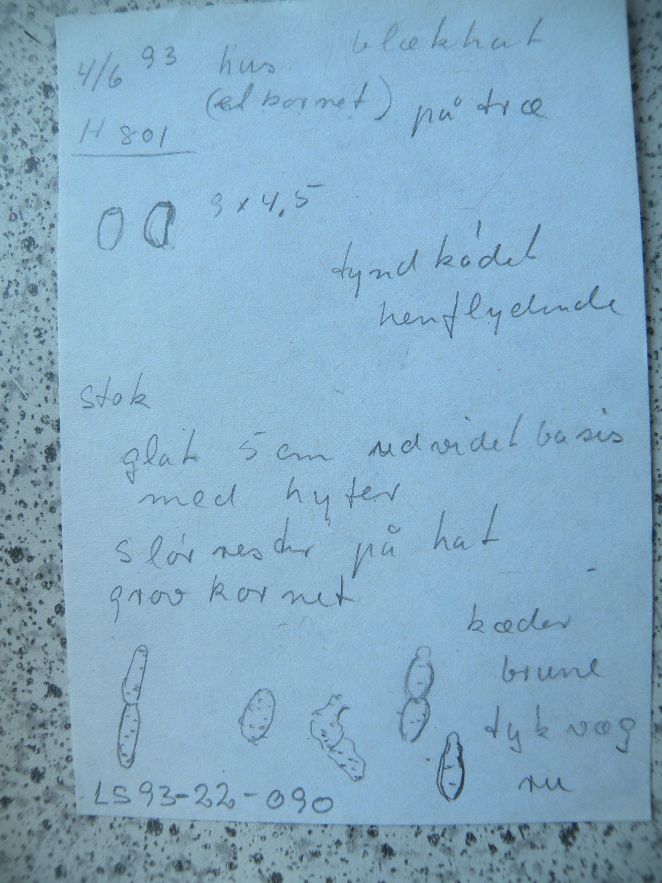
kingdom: Fungi
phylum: Basidiomycota
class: Agaricomycetes
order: Agaricales
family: Psathyrellaceae
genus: Coprinellus
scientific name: Coprinellus xanthothrix
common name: gultrådet blækhat
